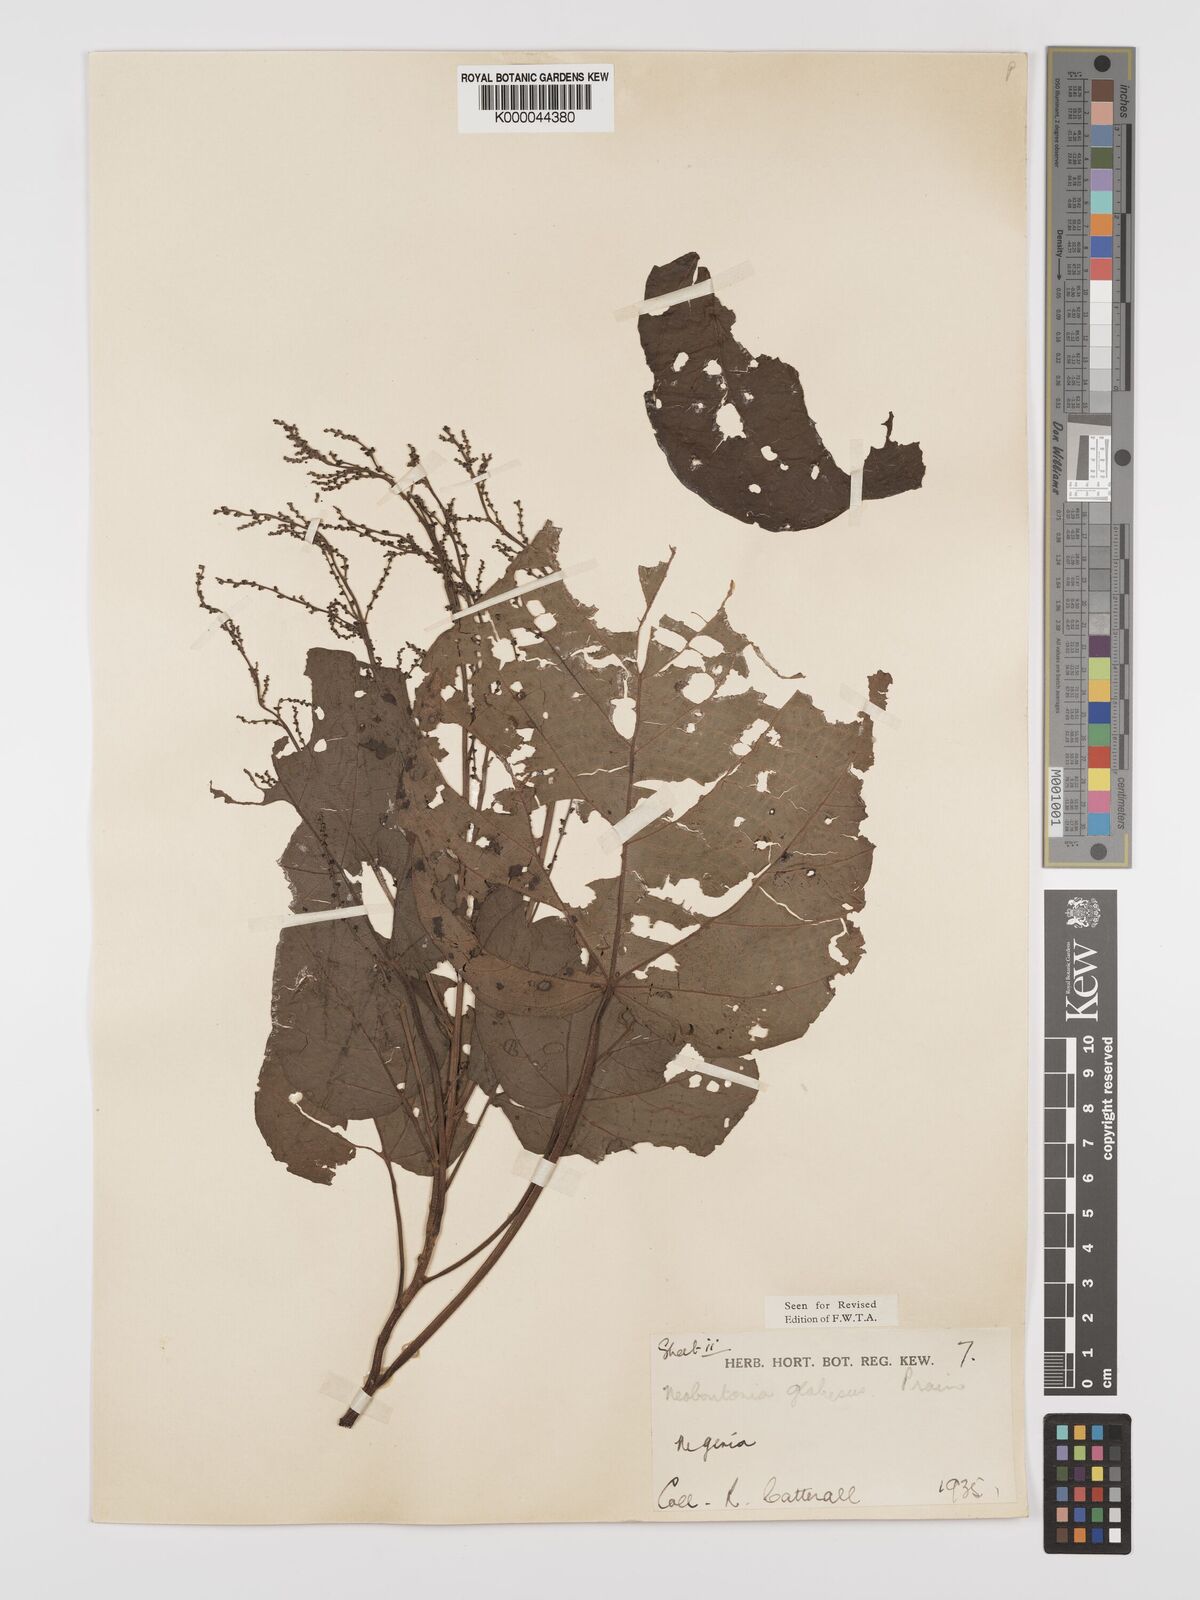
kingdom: Plantae
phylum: Tracheophyta
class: Magnoliopsida
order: Malpighiales
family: Euphorbiaceae
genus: Neoboutonia
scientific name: Neoboutonia mannii
